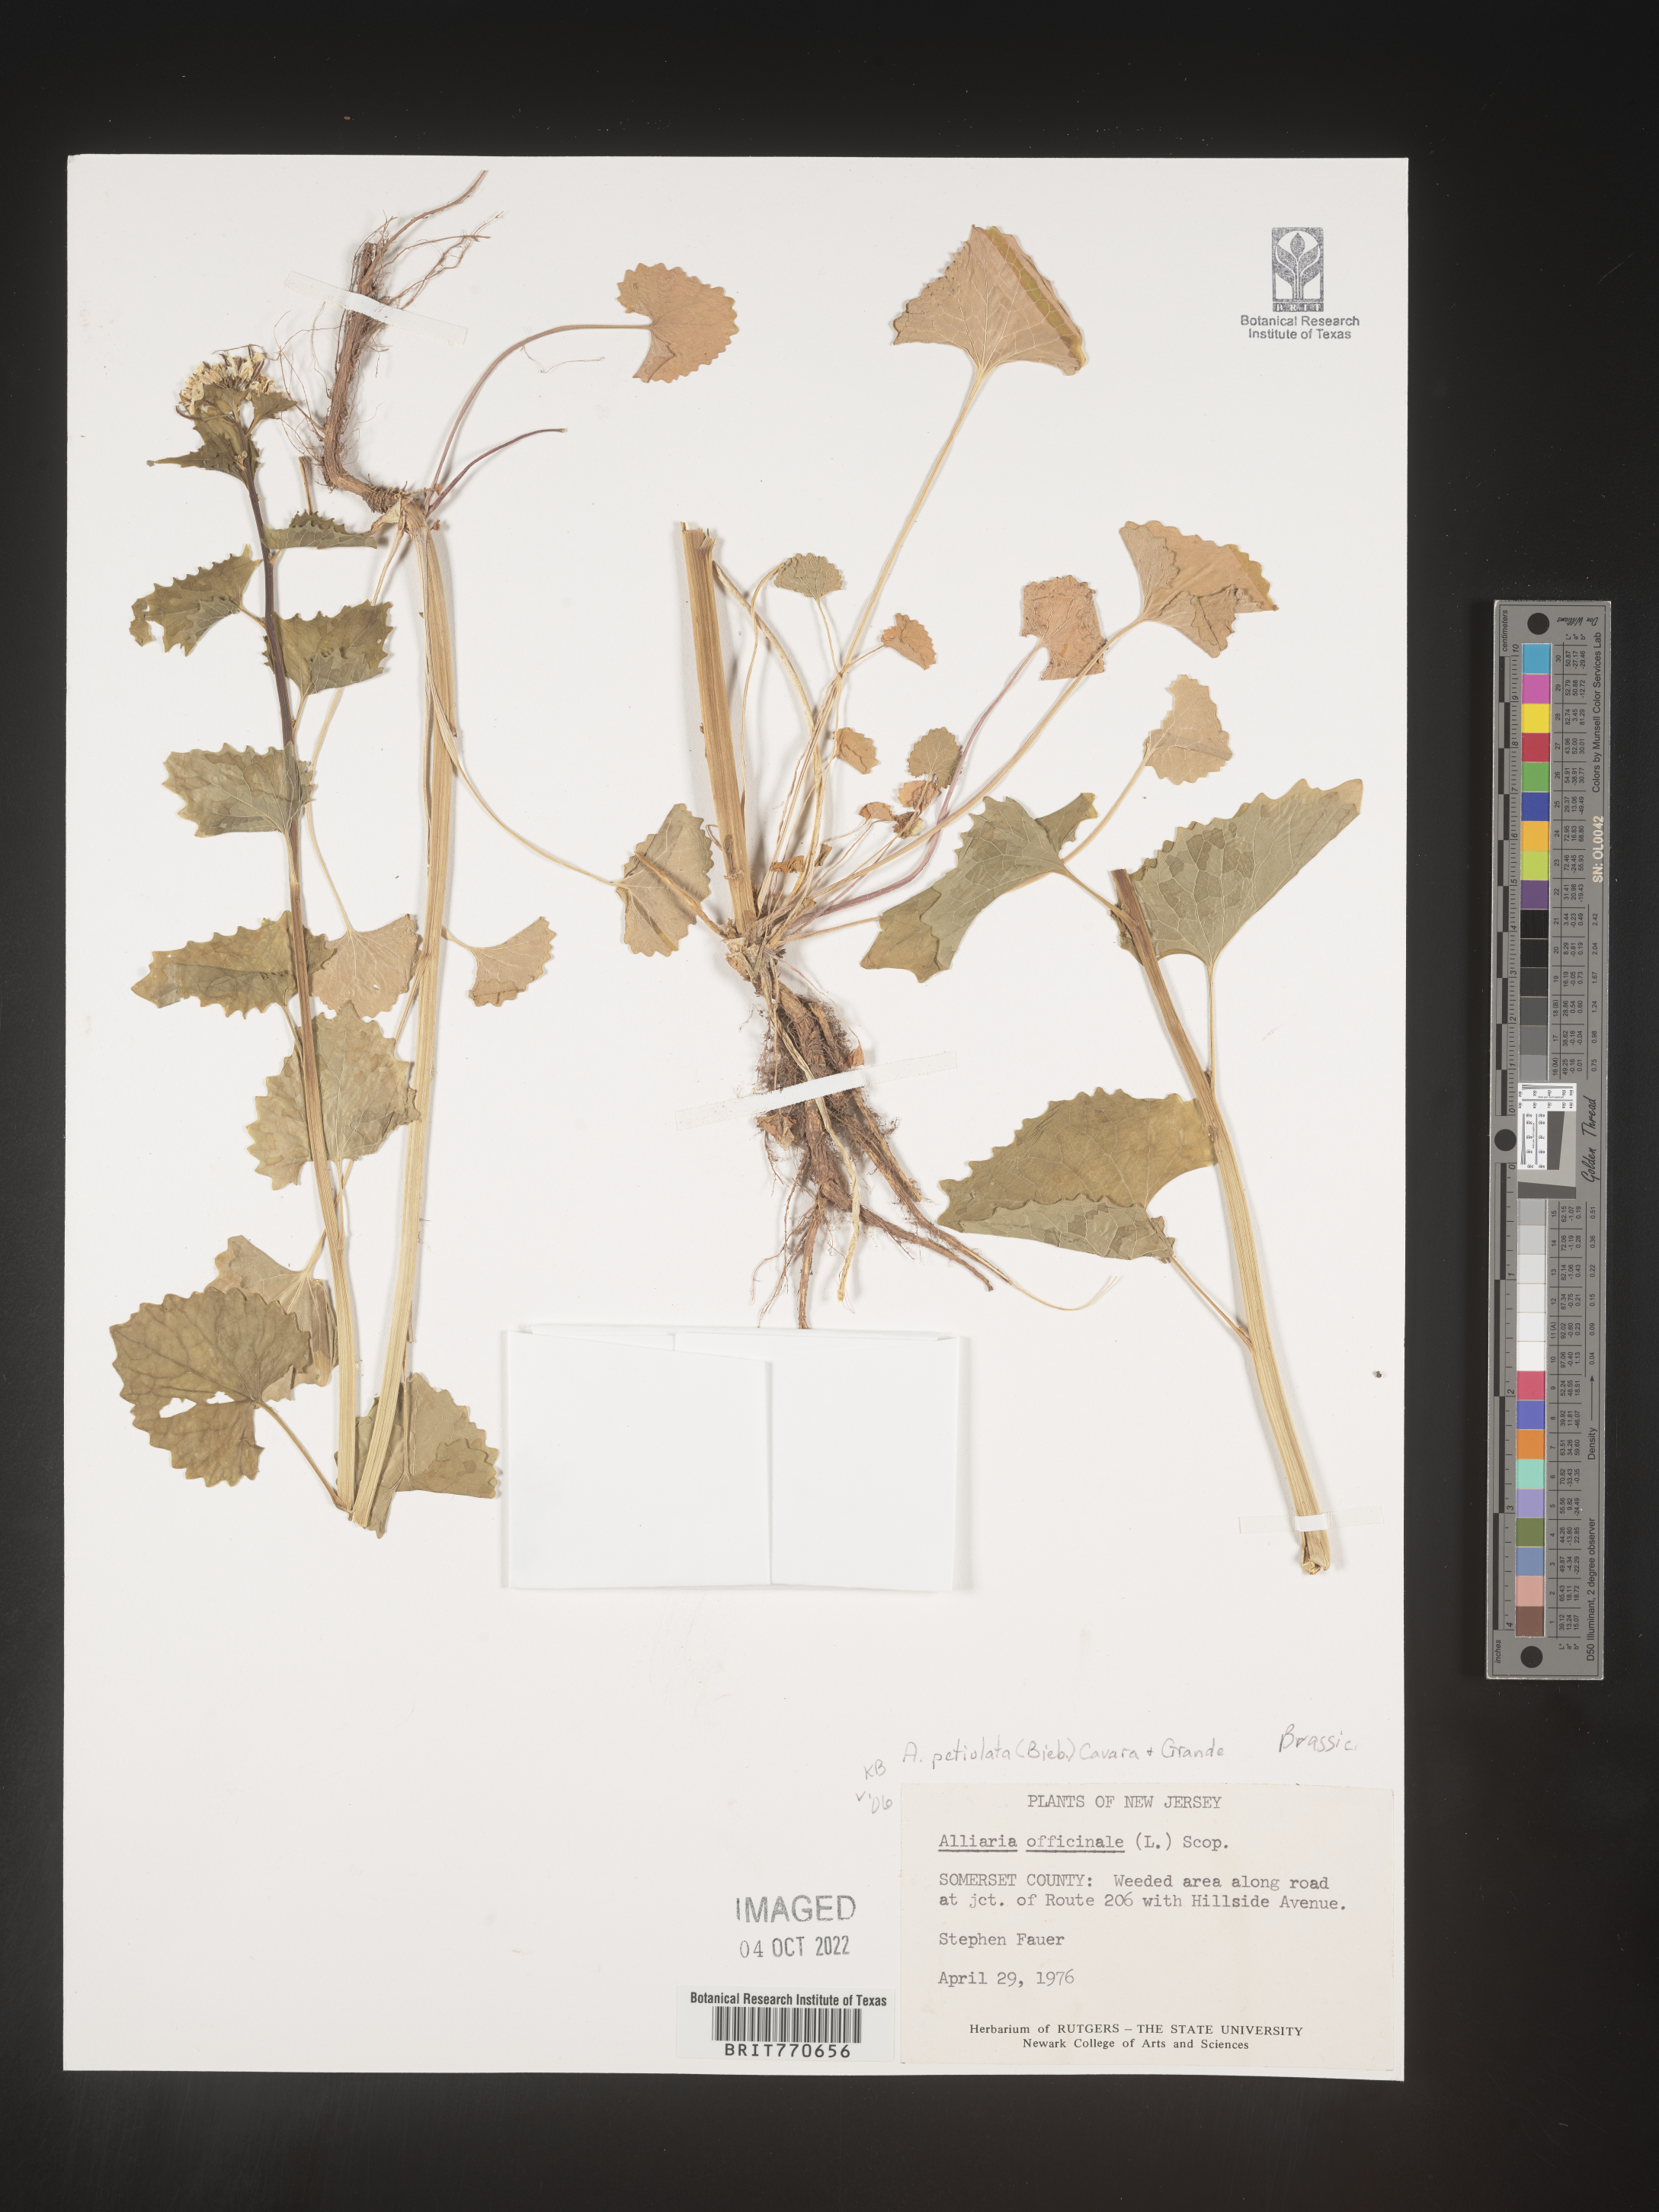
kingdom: Plantae
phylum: Tracheophyta
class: Magnoliopsida
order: Brassicales
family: Brassicaceae
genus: Alliaria
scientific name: Alliaria
